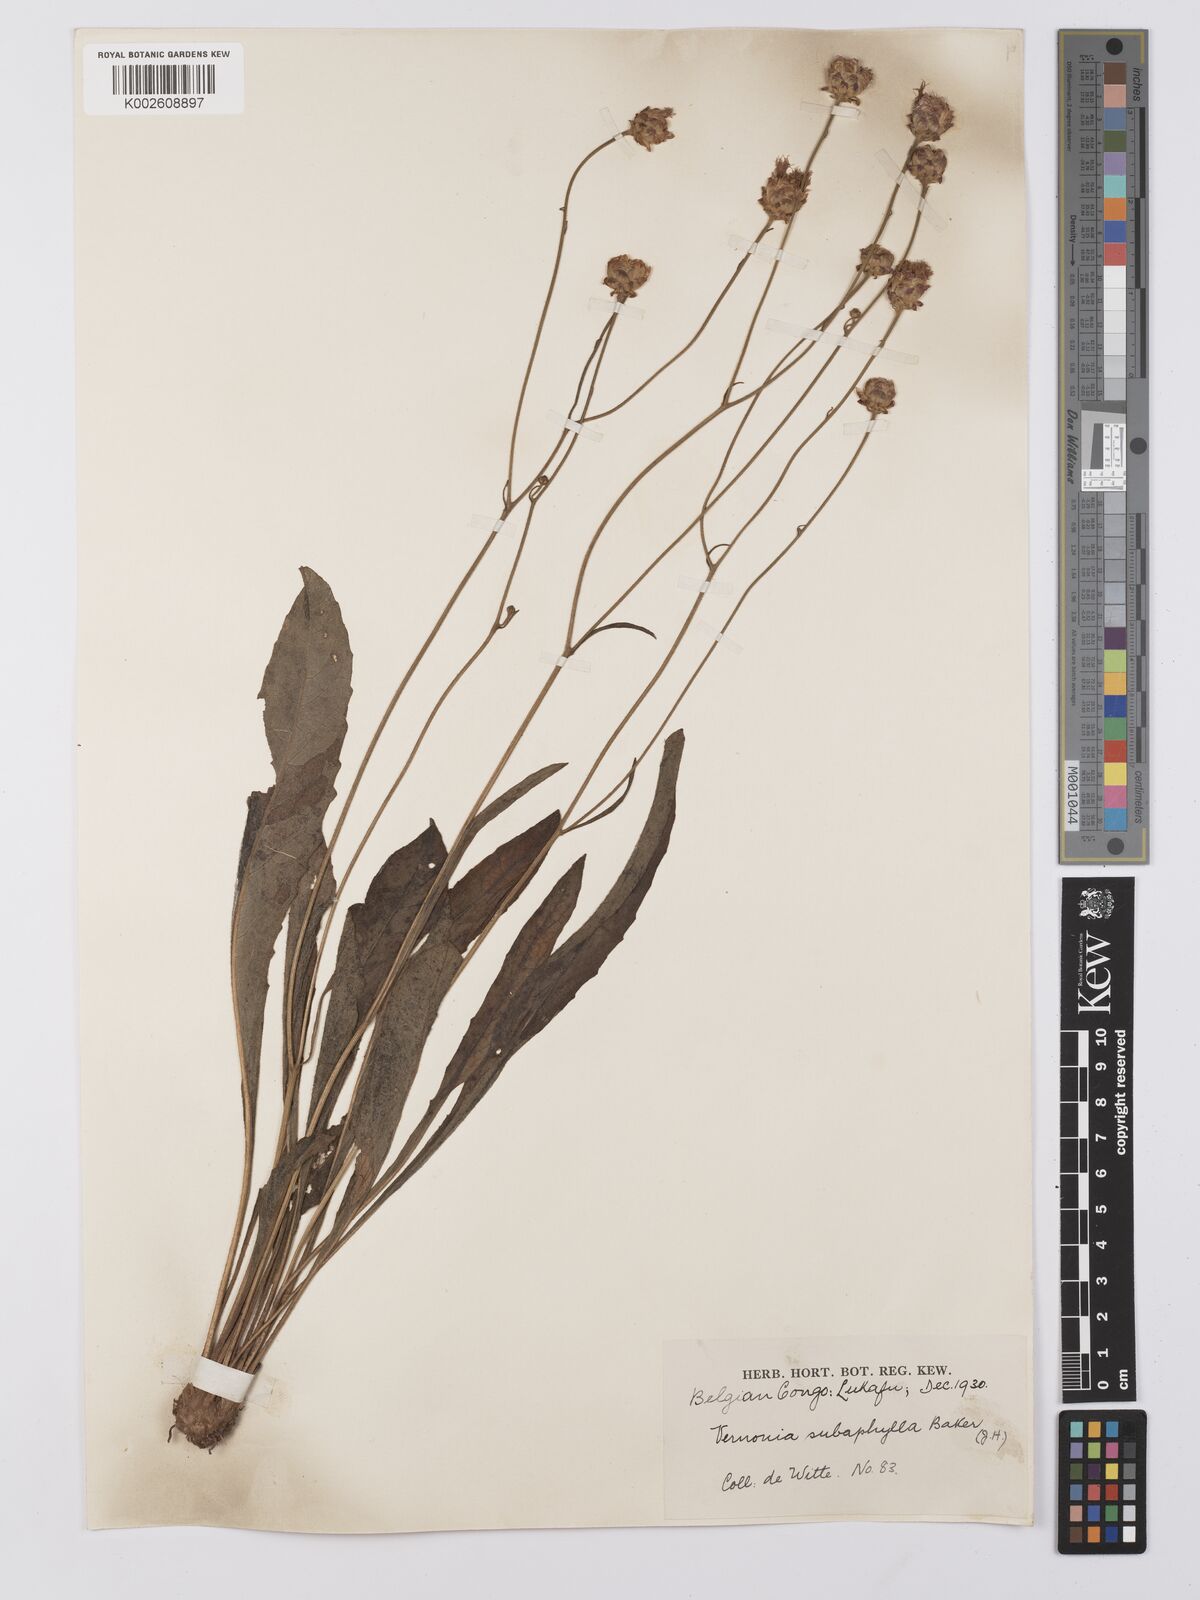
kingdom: Plantae
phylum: Tracheophyta
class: Magnoliopsida
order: Asterales
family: Asteraceae
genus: Vernonella
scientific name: Vernonella subaphylla
